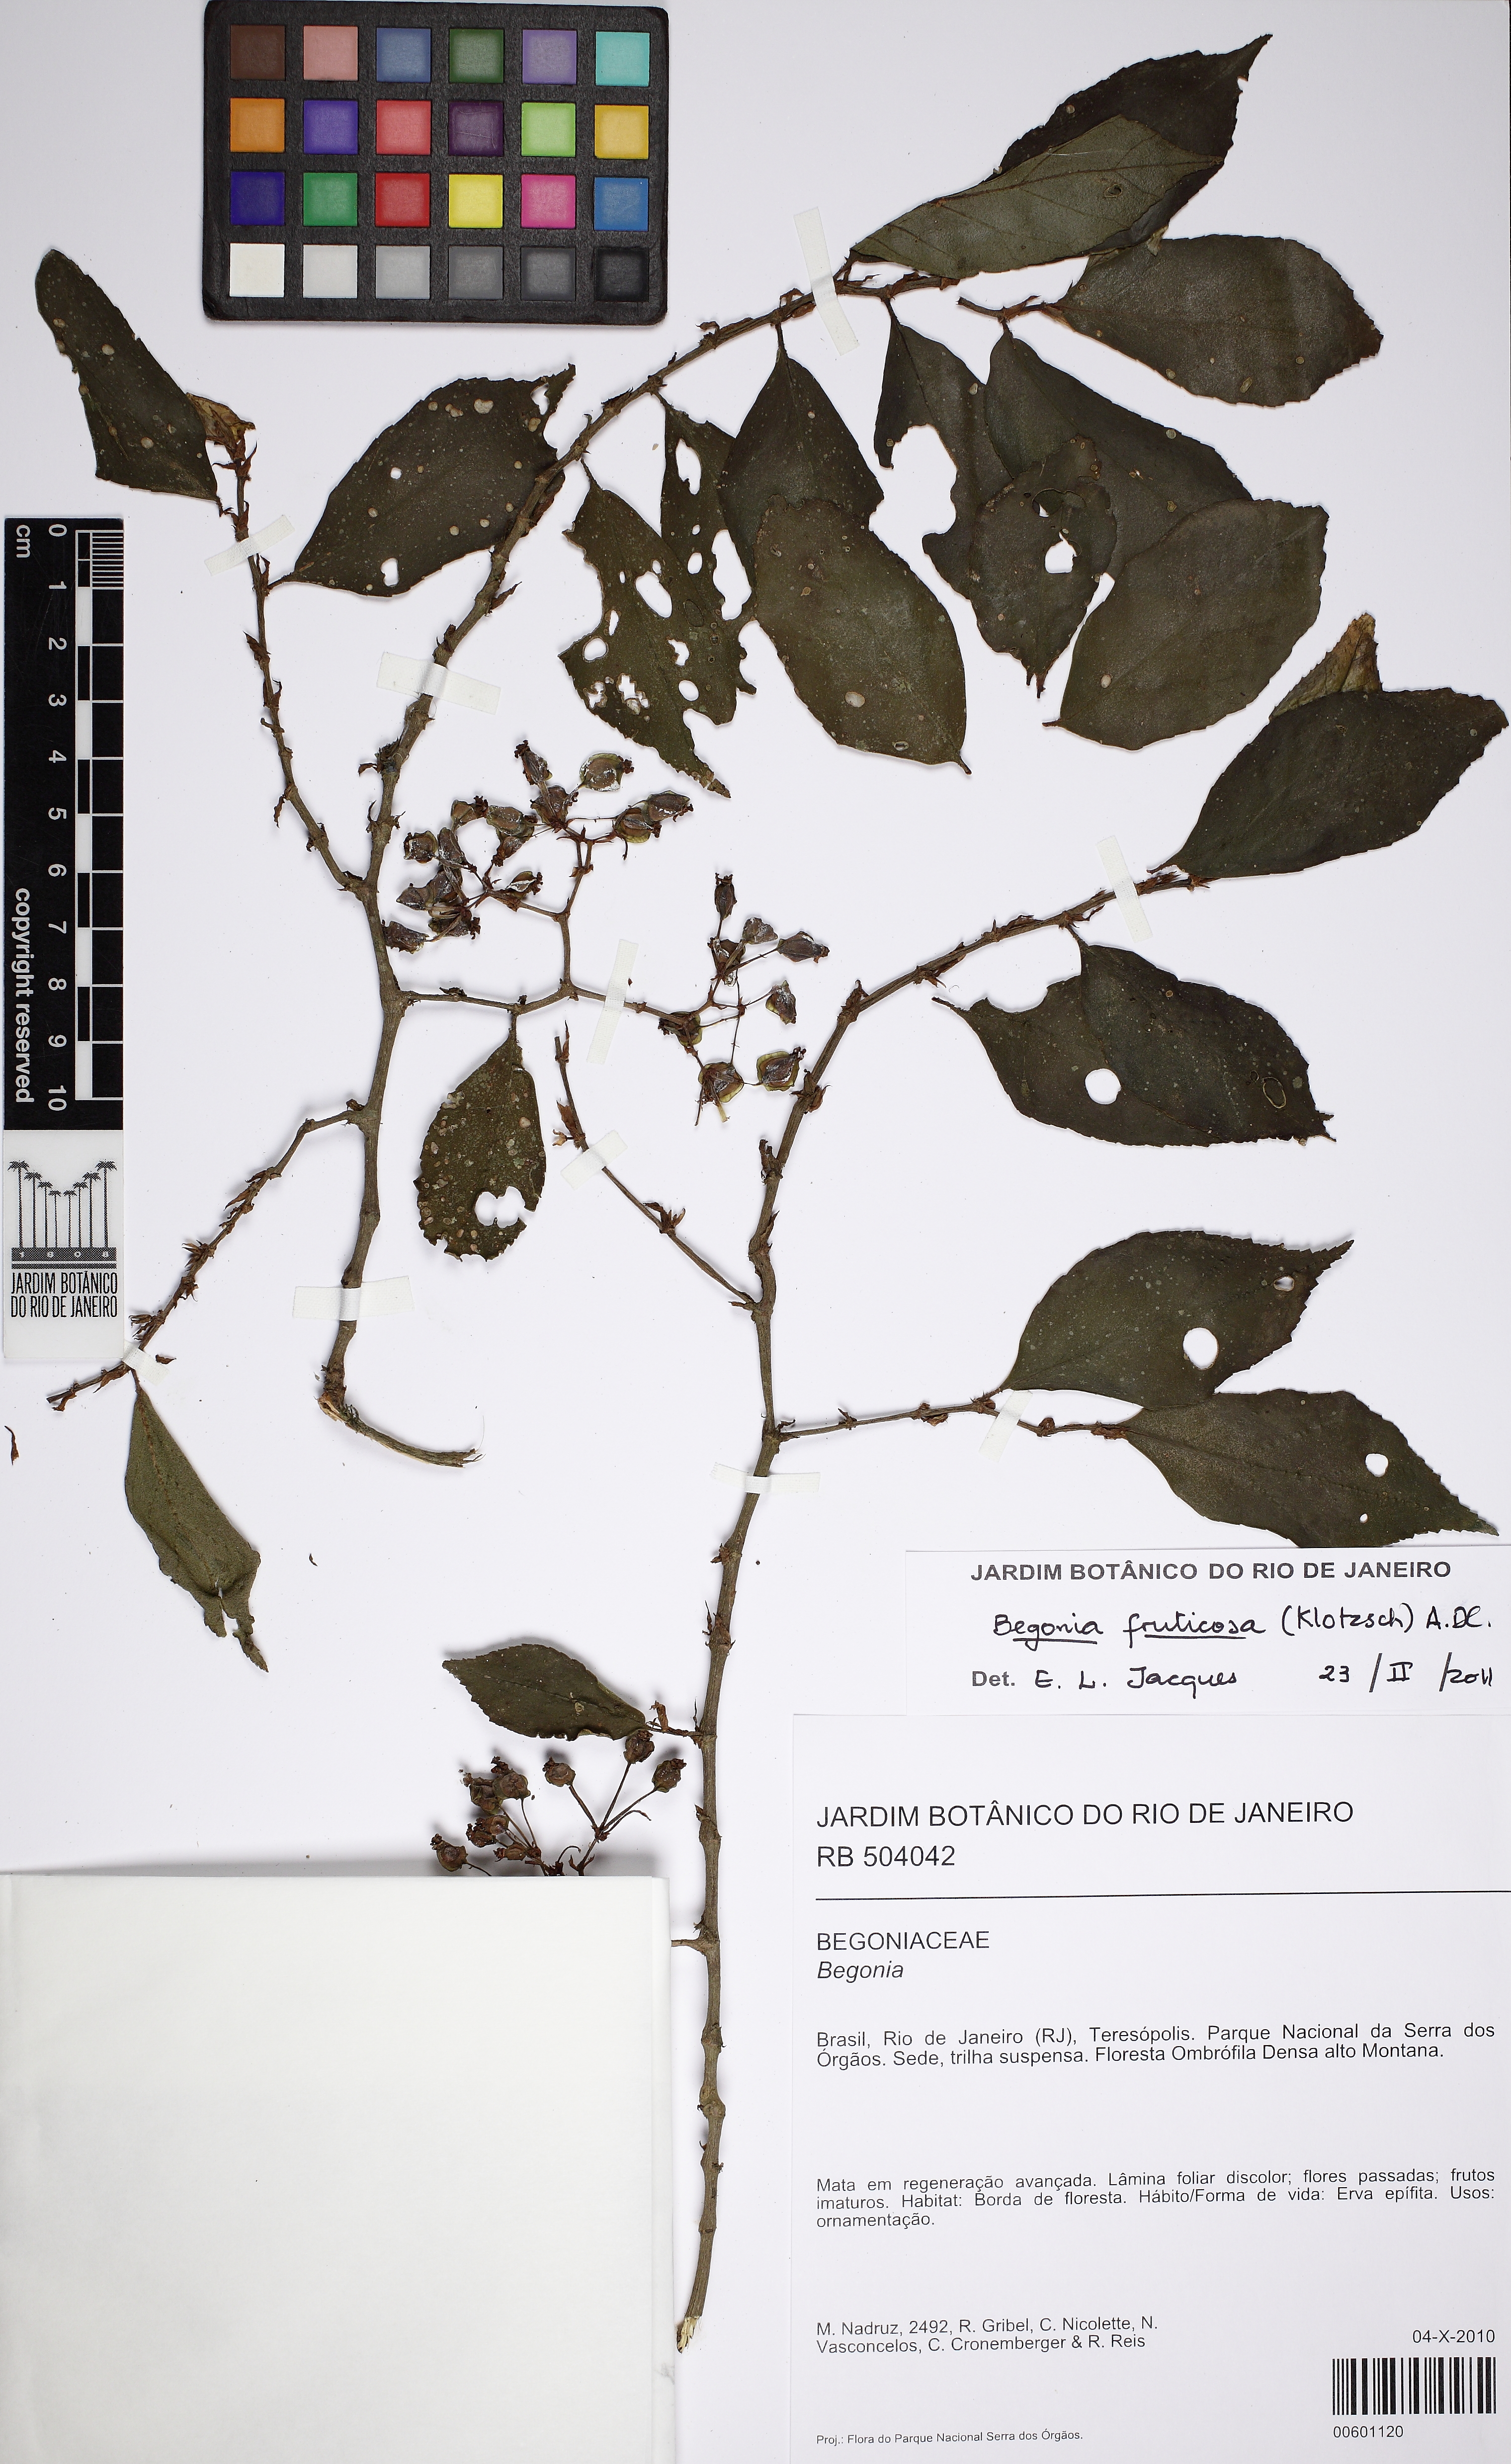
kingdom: Plantae
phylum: Tracheophyta
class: Magnoliopsida
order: Cucurbitales
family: Begoniaceae
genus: Begonia
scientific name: Begonia fruticosa
